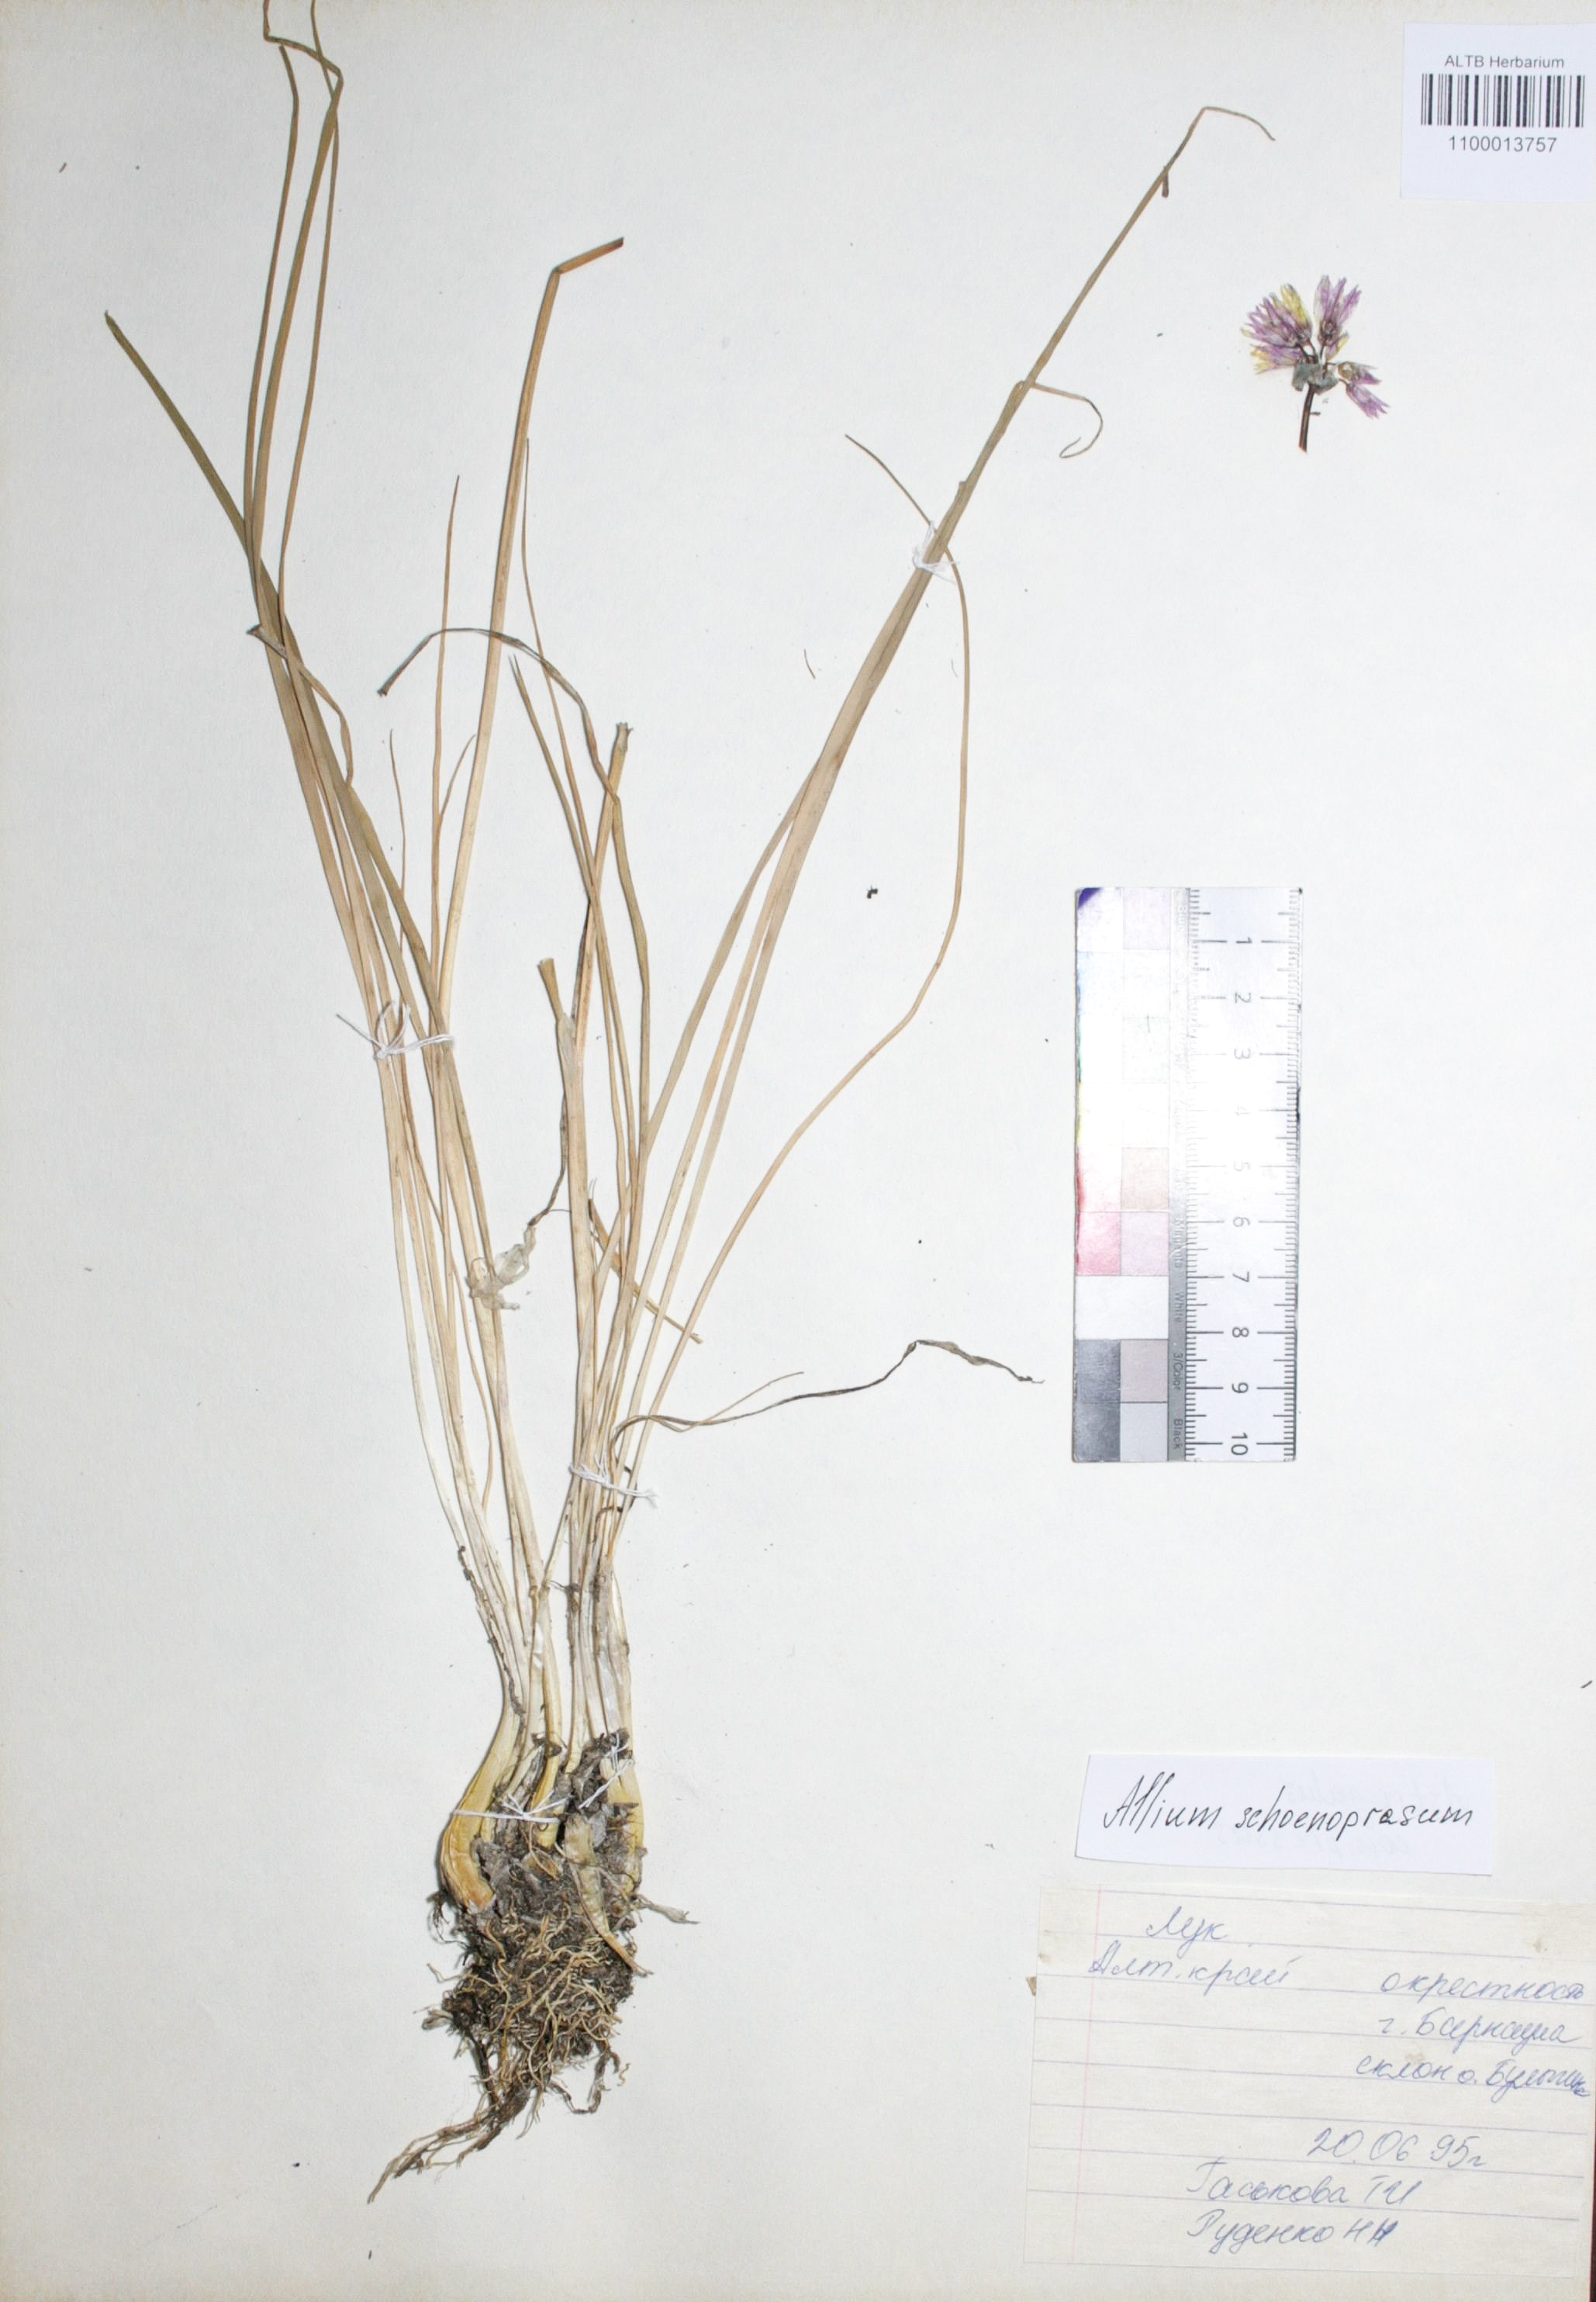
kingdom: Plantae
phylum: Tracheophyta
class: Liliopsida
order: Asparagales
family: Amaryllidaceae
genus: Allium
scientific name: Allium schoenoprasum
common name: Chives
